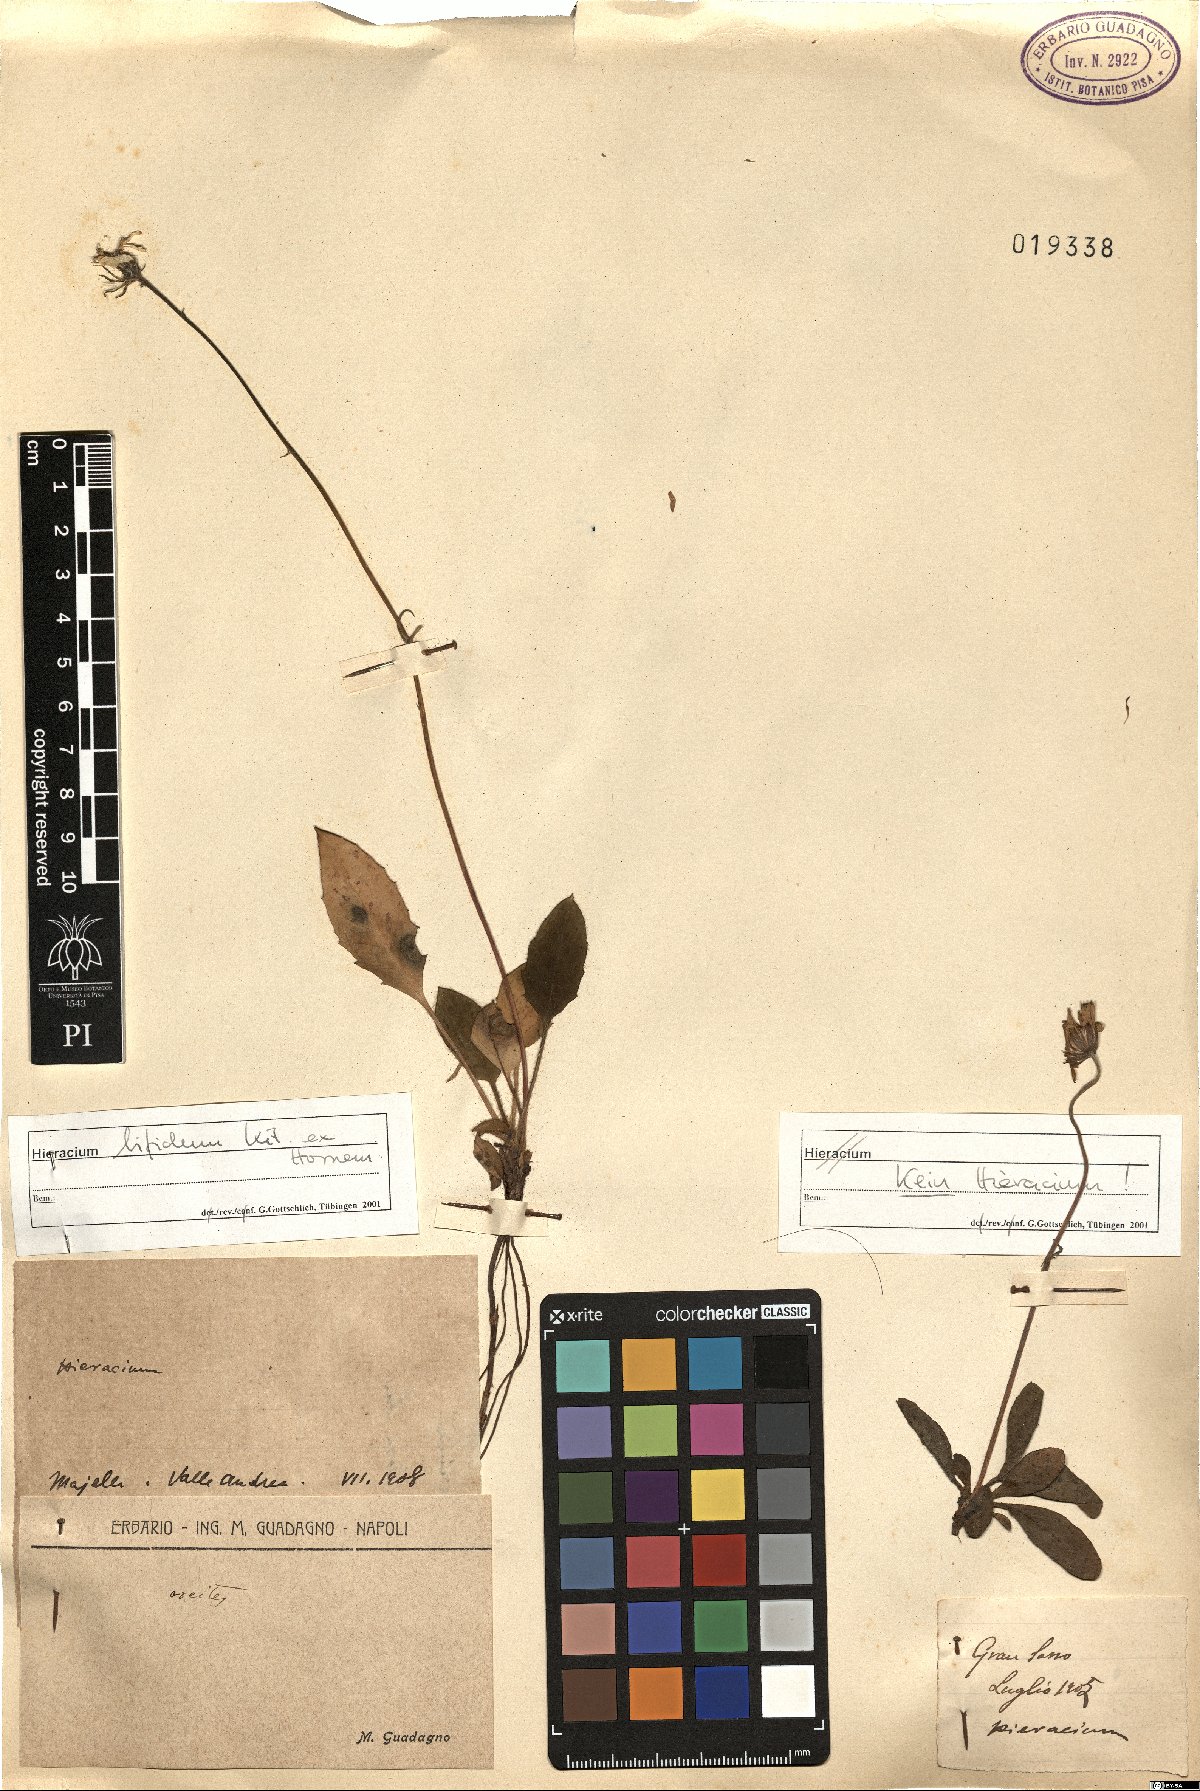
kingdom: Plantae
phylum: Tracheophyta
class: Magnoliopsida
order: Asterales
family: Asteraceae
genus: Hieracium
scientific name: Hieracium
